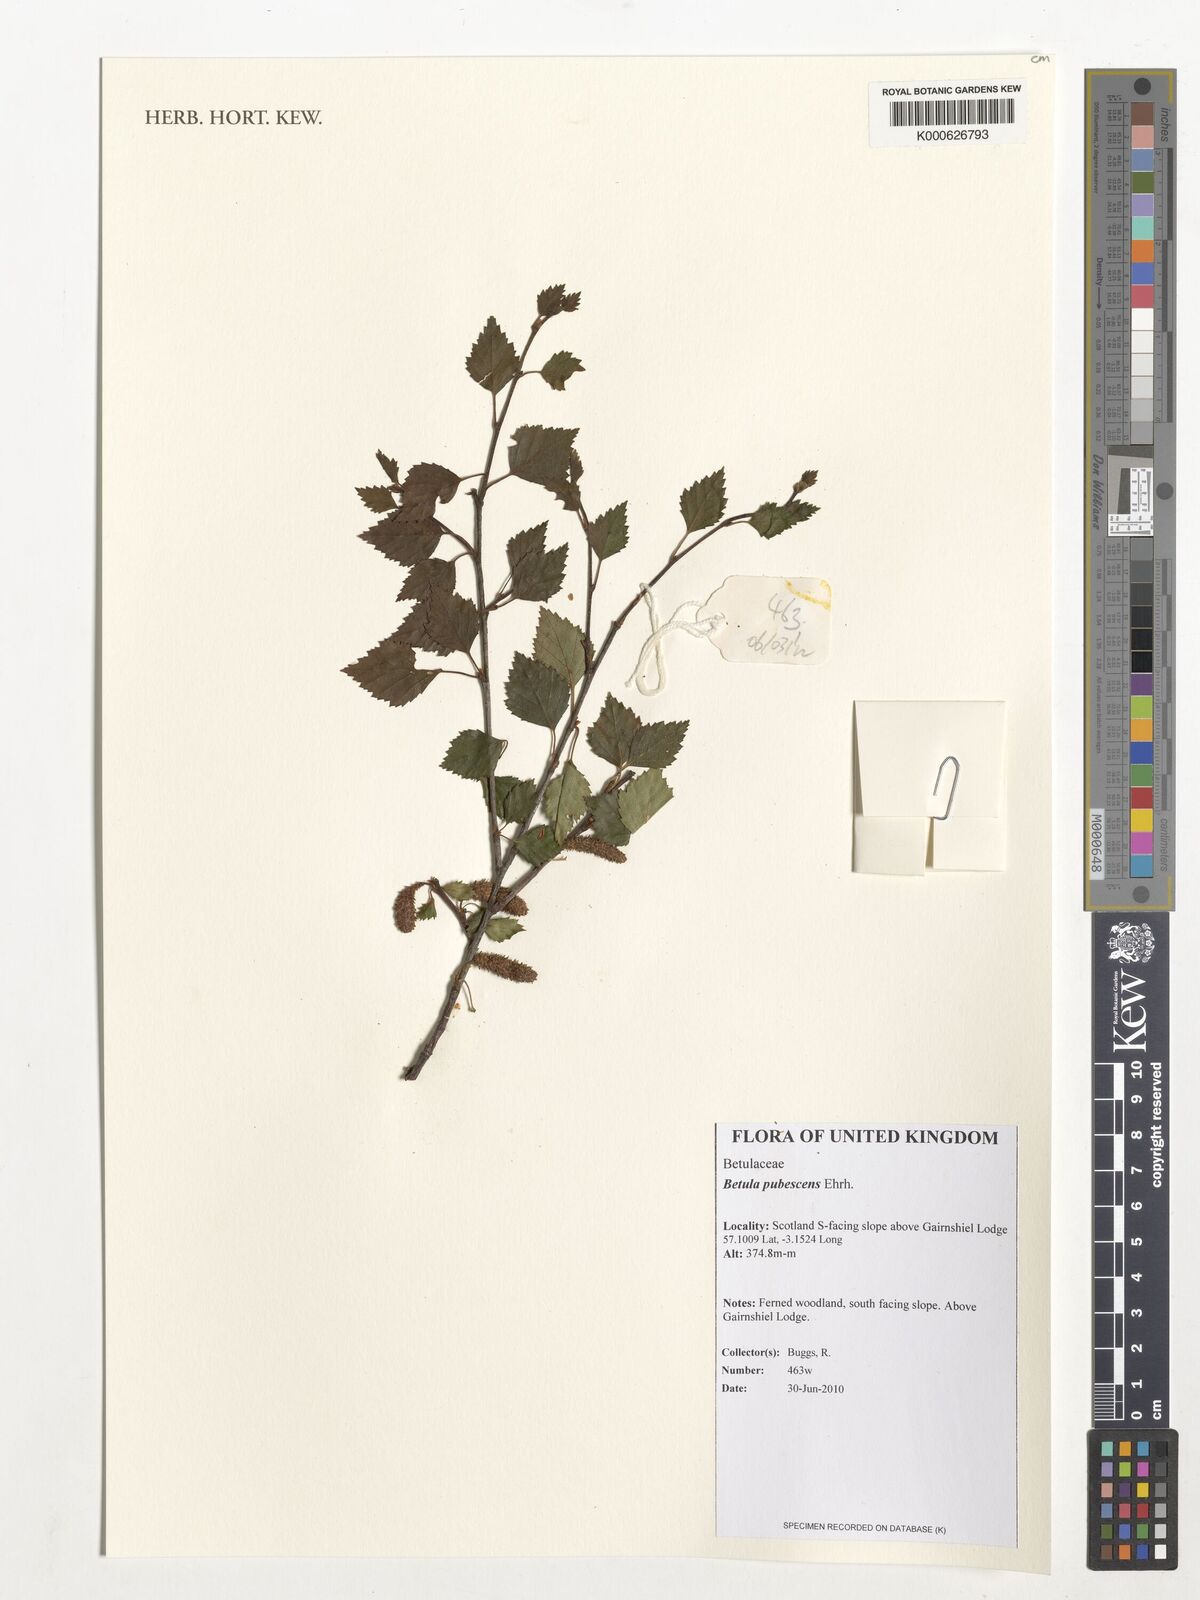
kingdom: Plantae
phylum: Tracheophyta
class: Magnoliopsida
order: Fagales
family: Betulaceae
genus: Betula
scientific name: Betula pubescens
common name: Downy birch
